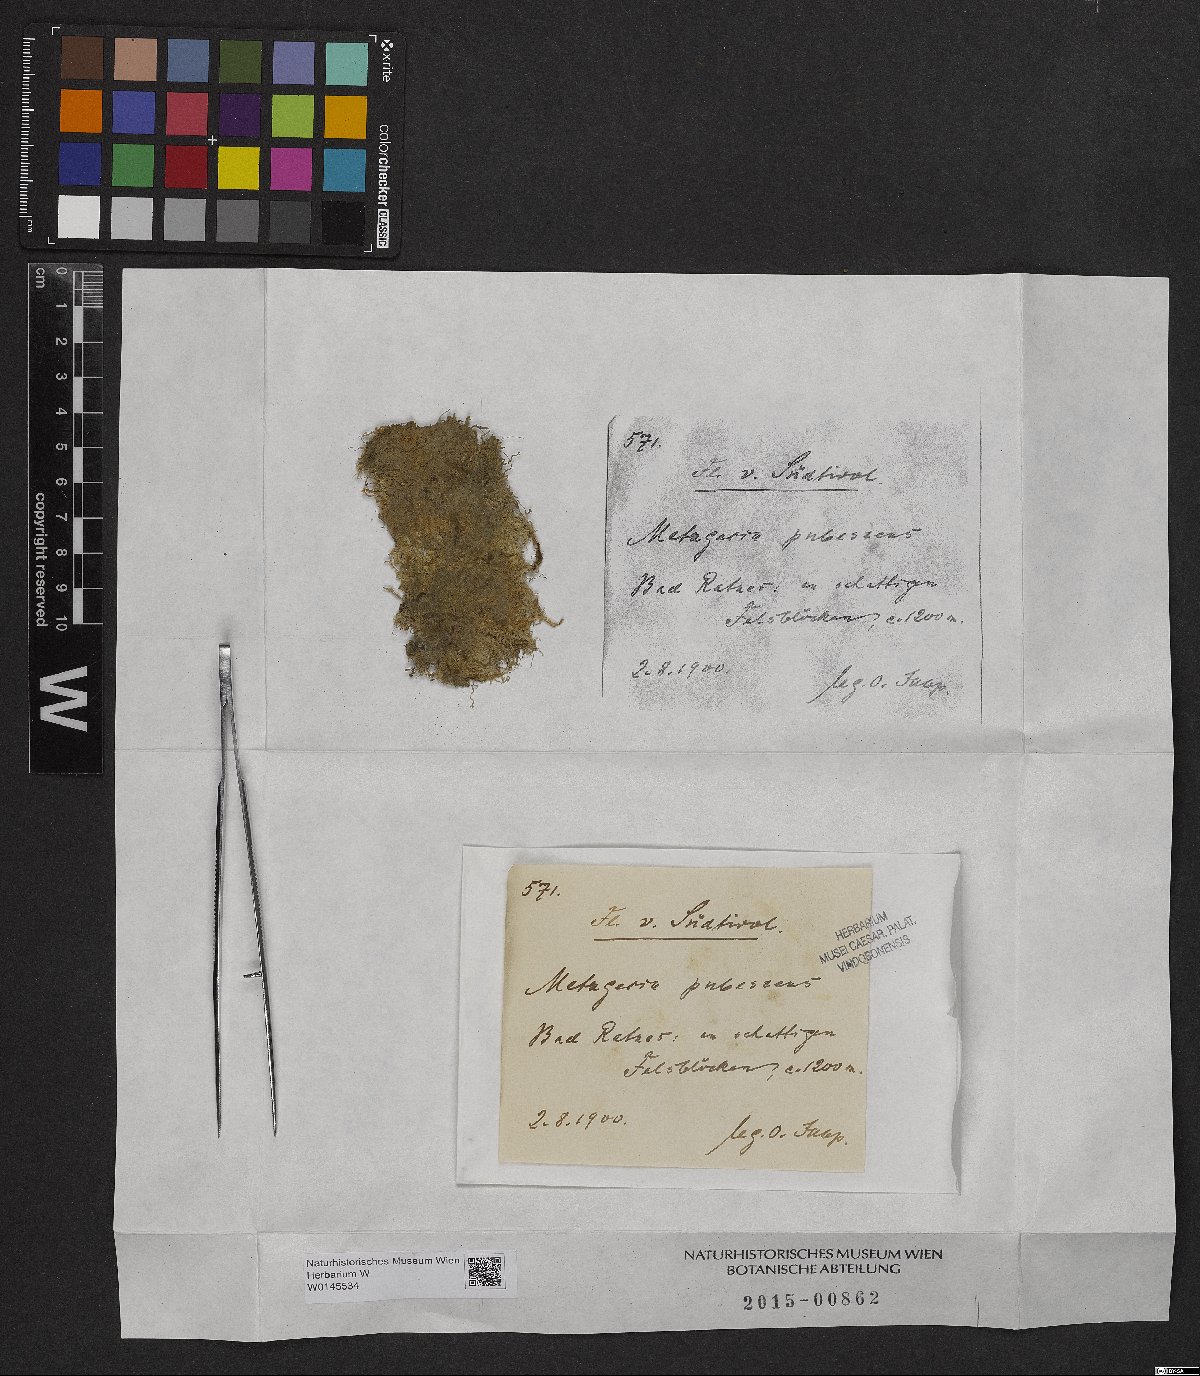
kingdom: Plantae
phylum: Marchantiophyta
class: Jungermanniopsida
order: Metzgeriales
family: Metzgeriaceae
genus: Metzgeria
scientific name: Metzgeria pubescens
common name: Downy veilwort
